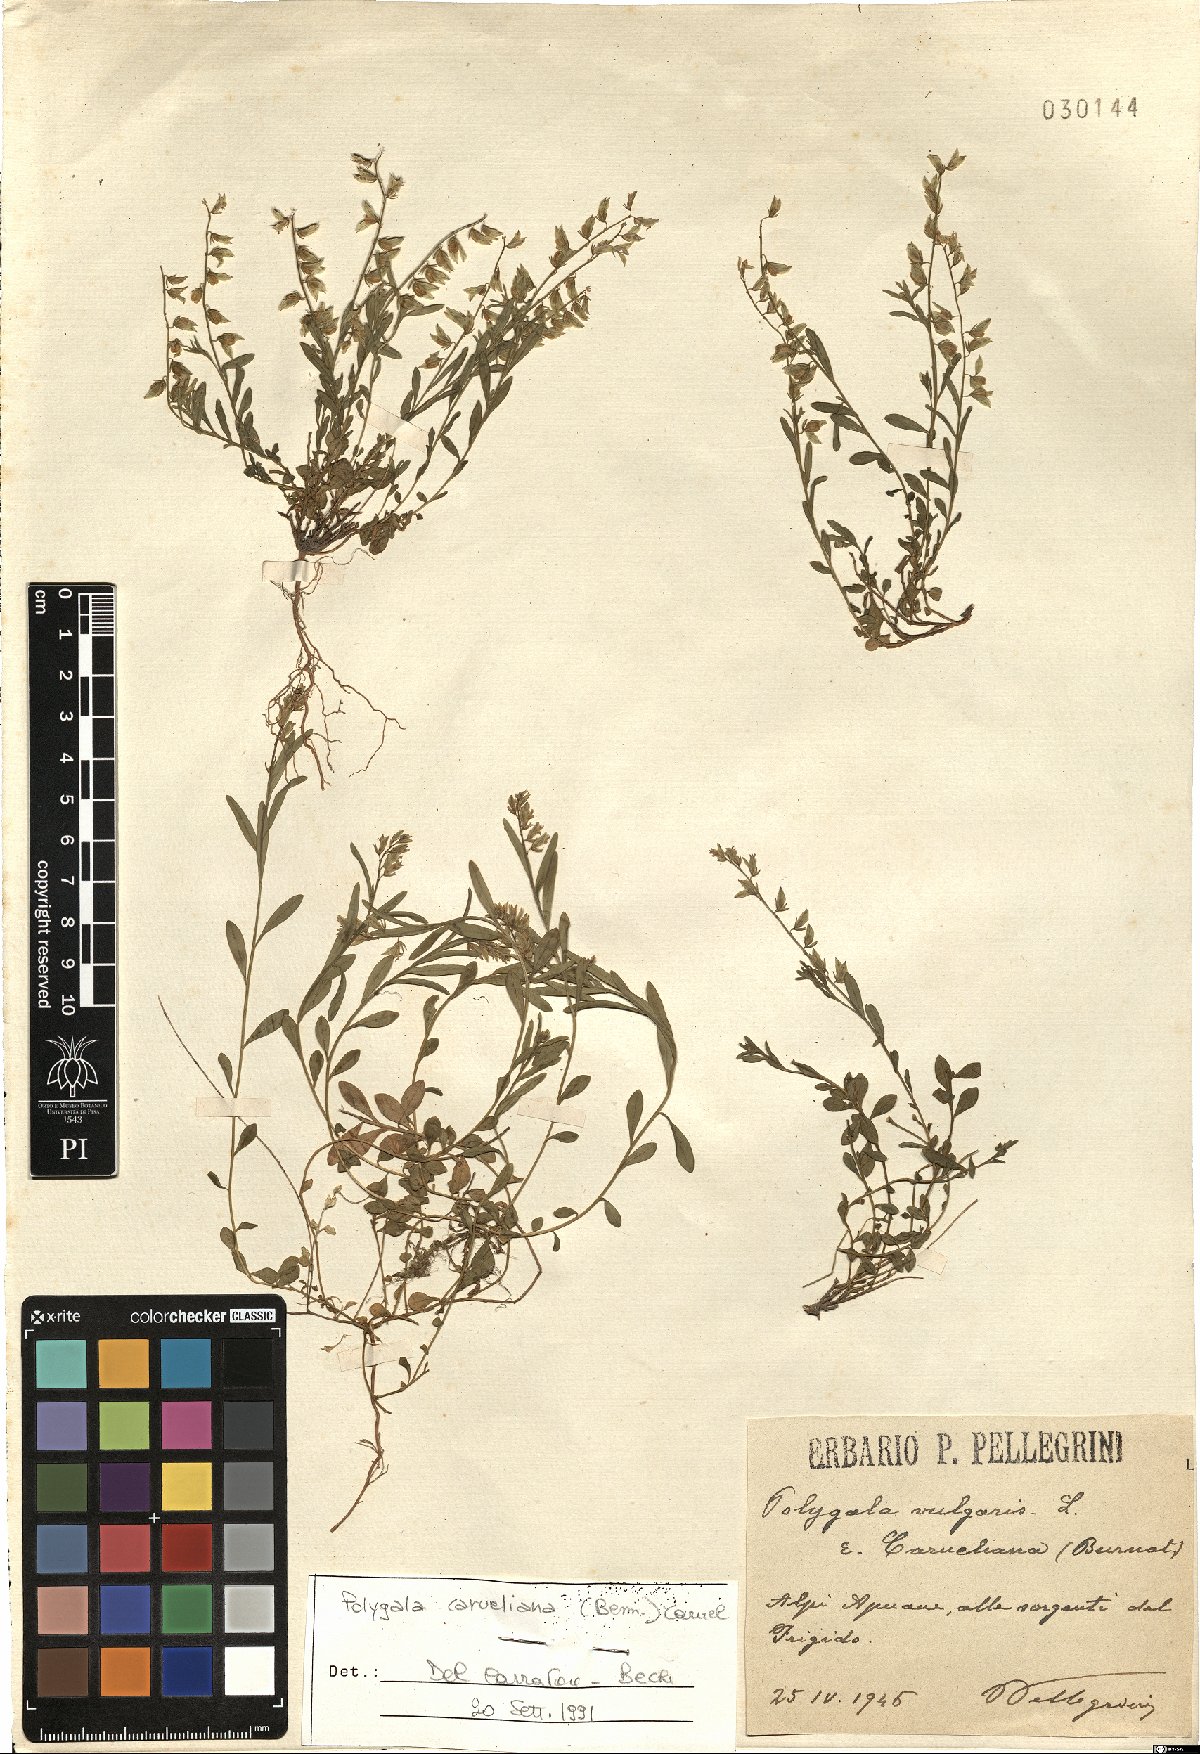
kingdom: Plantae
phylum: Tracheophyta
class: Magnoliopsida
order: Fabales
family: Polygalaceae
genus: Polygala
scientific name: Polygala carueliana
